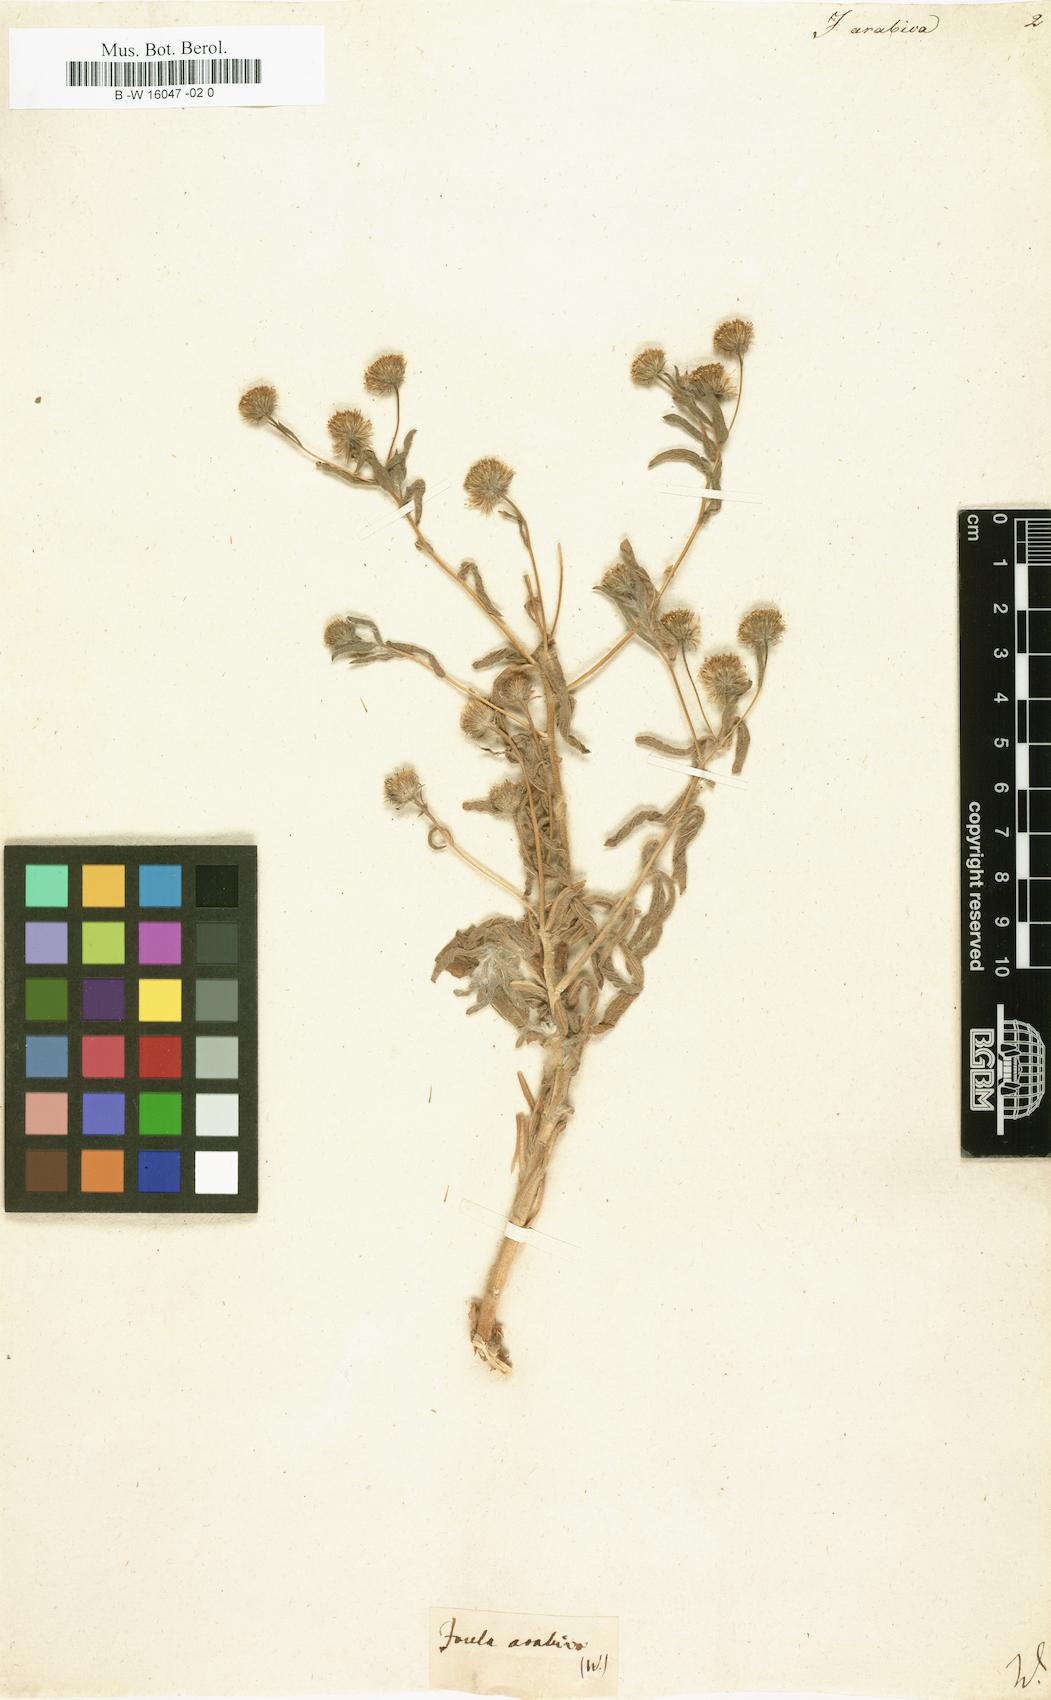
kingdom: Plantae
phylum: Tracheophyta
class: Magnoliopsida
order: Asterales
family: Asteraceae
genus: Pulicaria
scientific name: Pulicaria
